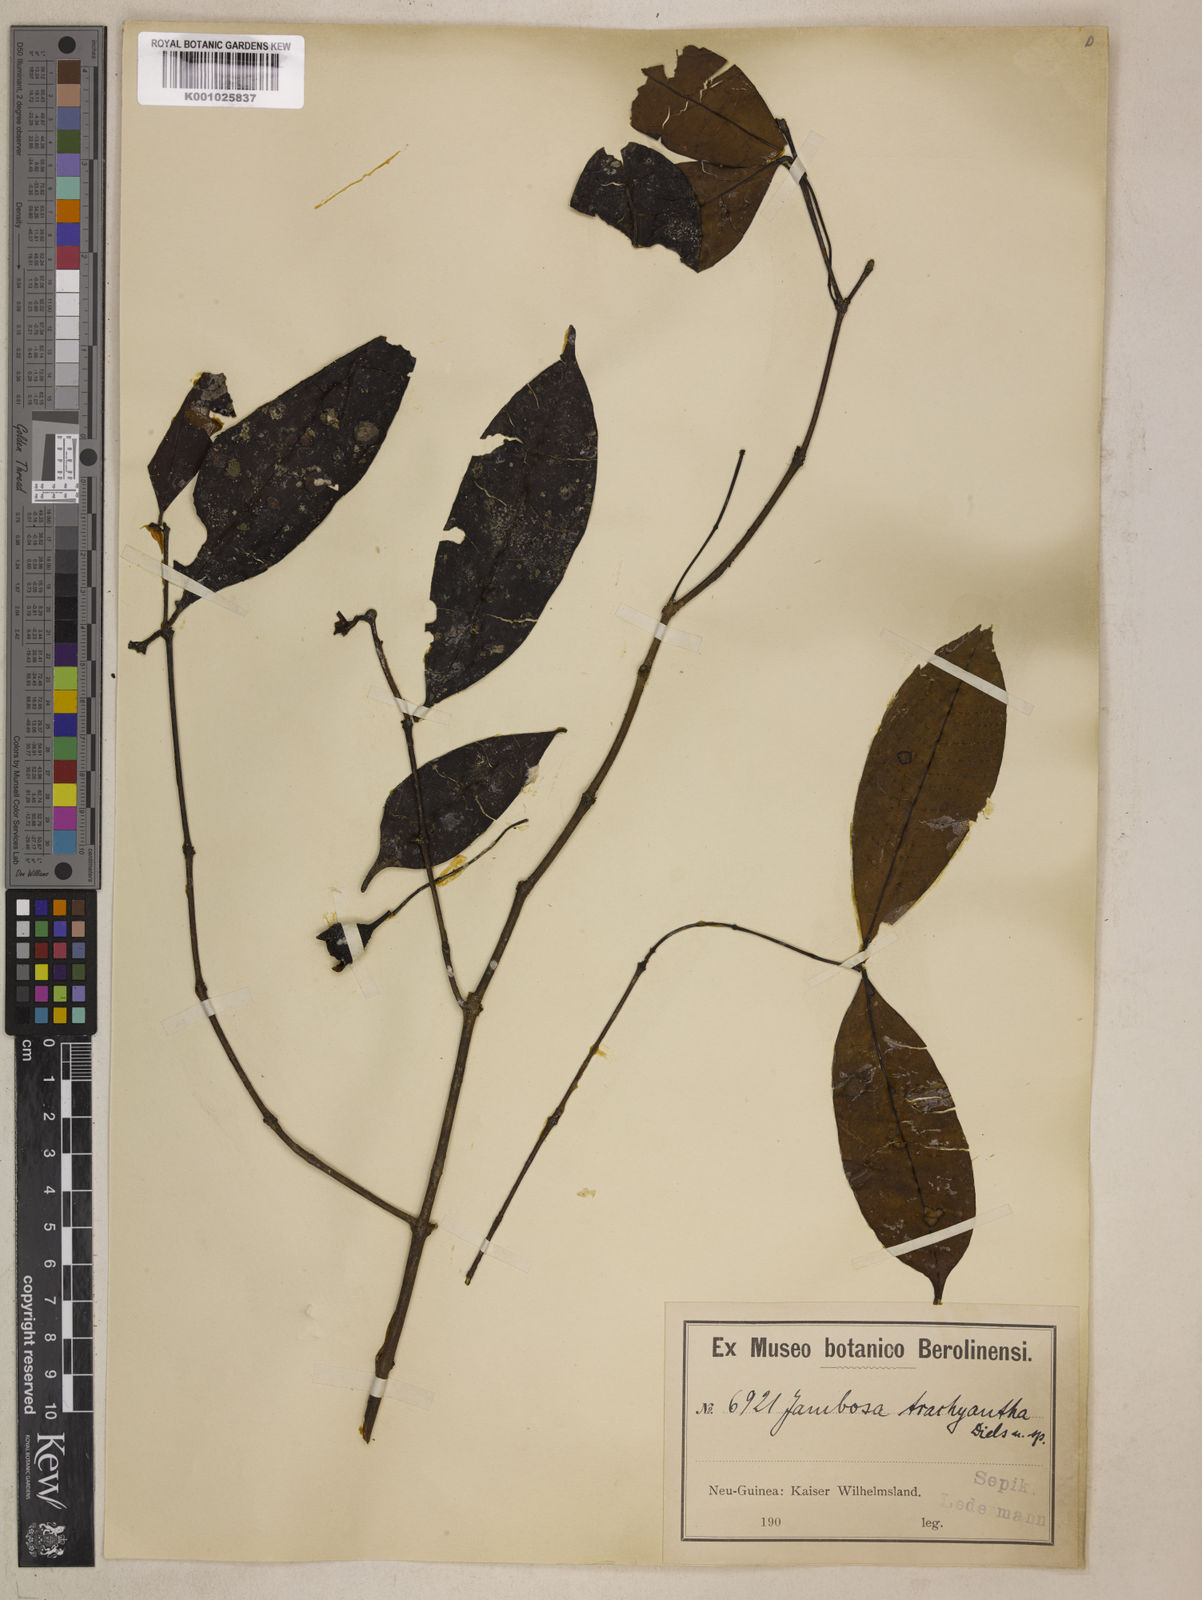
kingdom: Plantae
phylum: Tracheophyta
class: Magnoliopsida
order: Myrtales
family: Myrtaceae
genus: Syzygium
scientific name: Syzygium trachyanthum
